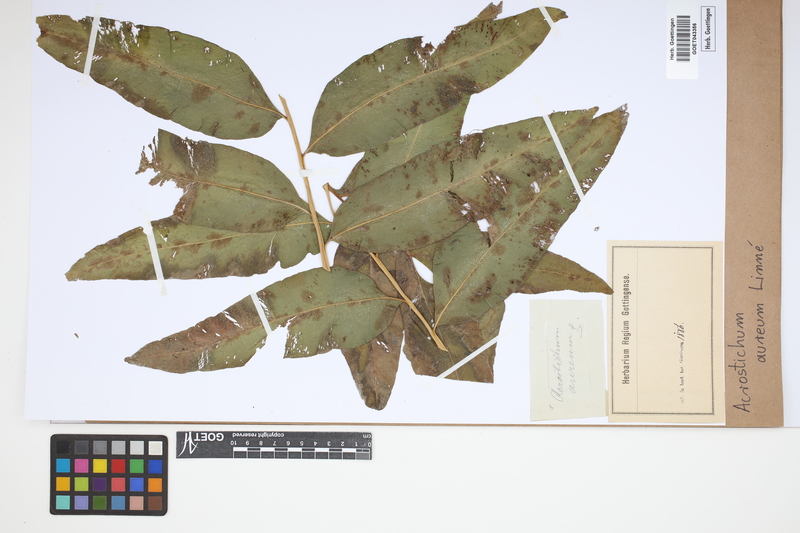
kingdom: Plantae
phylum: Tracheophyta
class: Polypodiopsida
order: Polypodiales
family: Pteridaceae
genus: Acrostichum
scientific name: Acrostichum aureum
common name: Leather fern
